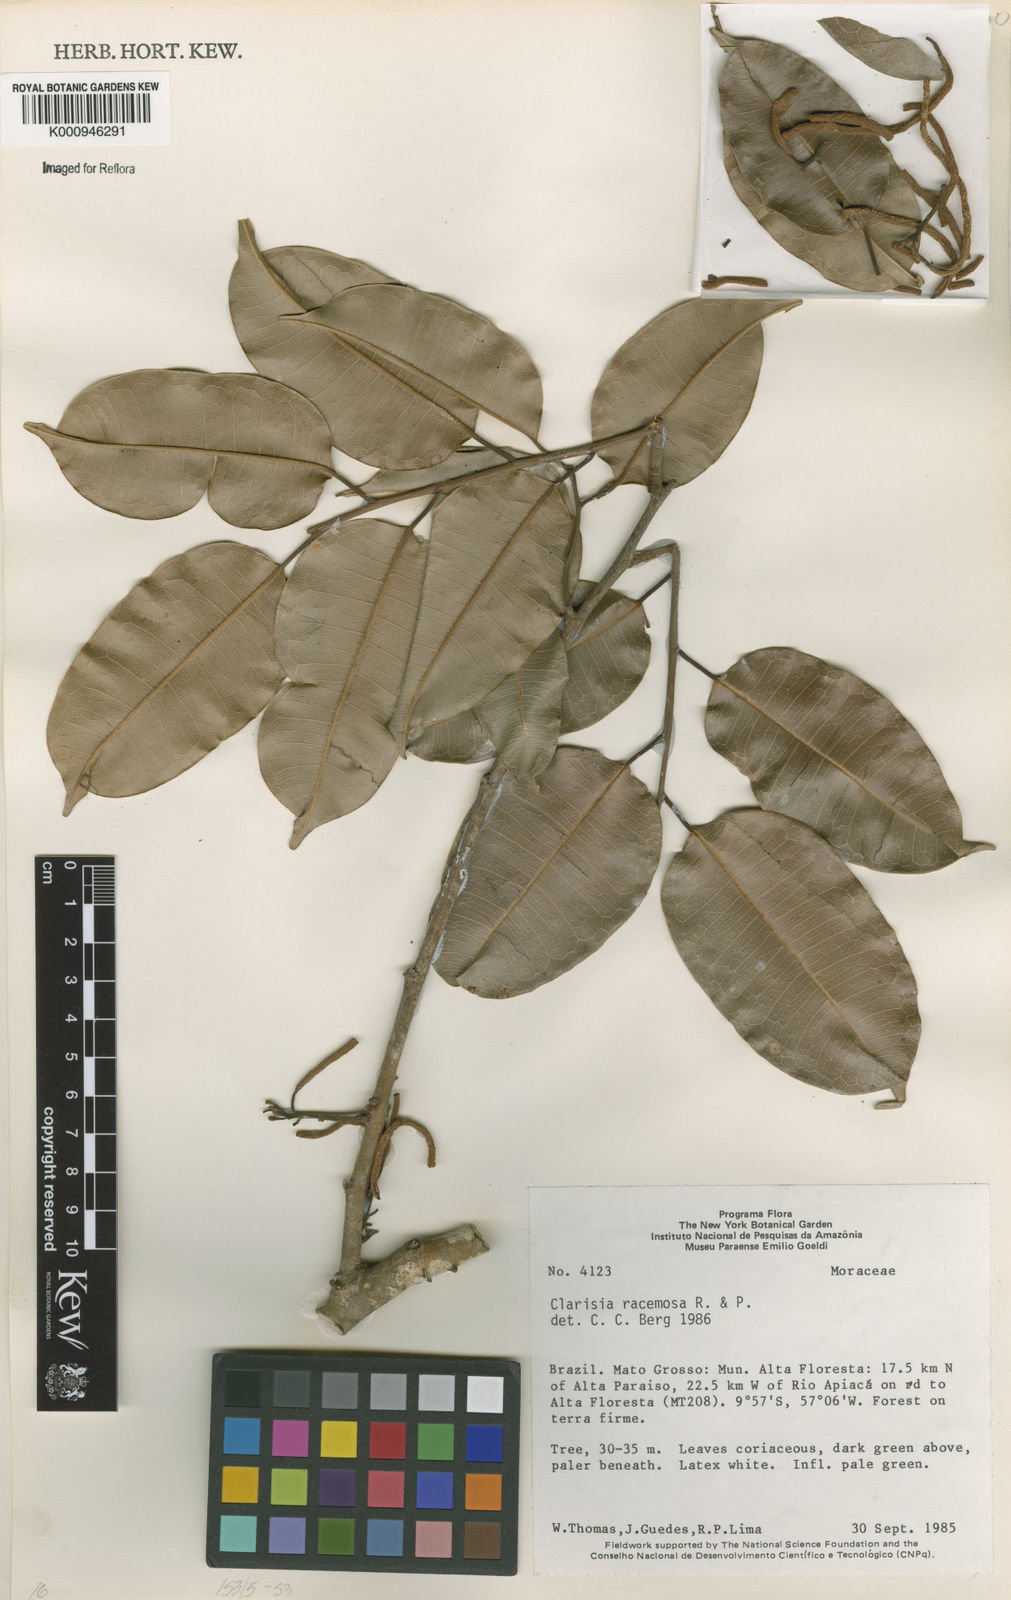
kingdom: Plantae
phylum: Tracheophyta
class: Magnoliopsida
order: Rosales
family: Moraceae
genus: Clarisia
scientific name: Clarisia racemosa
